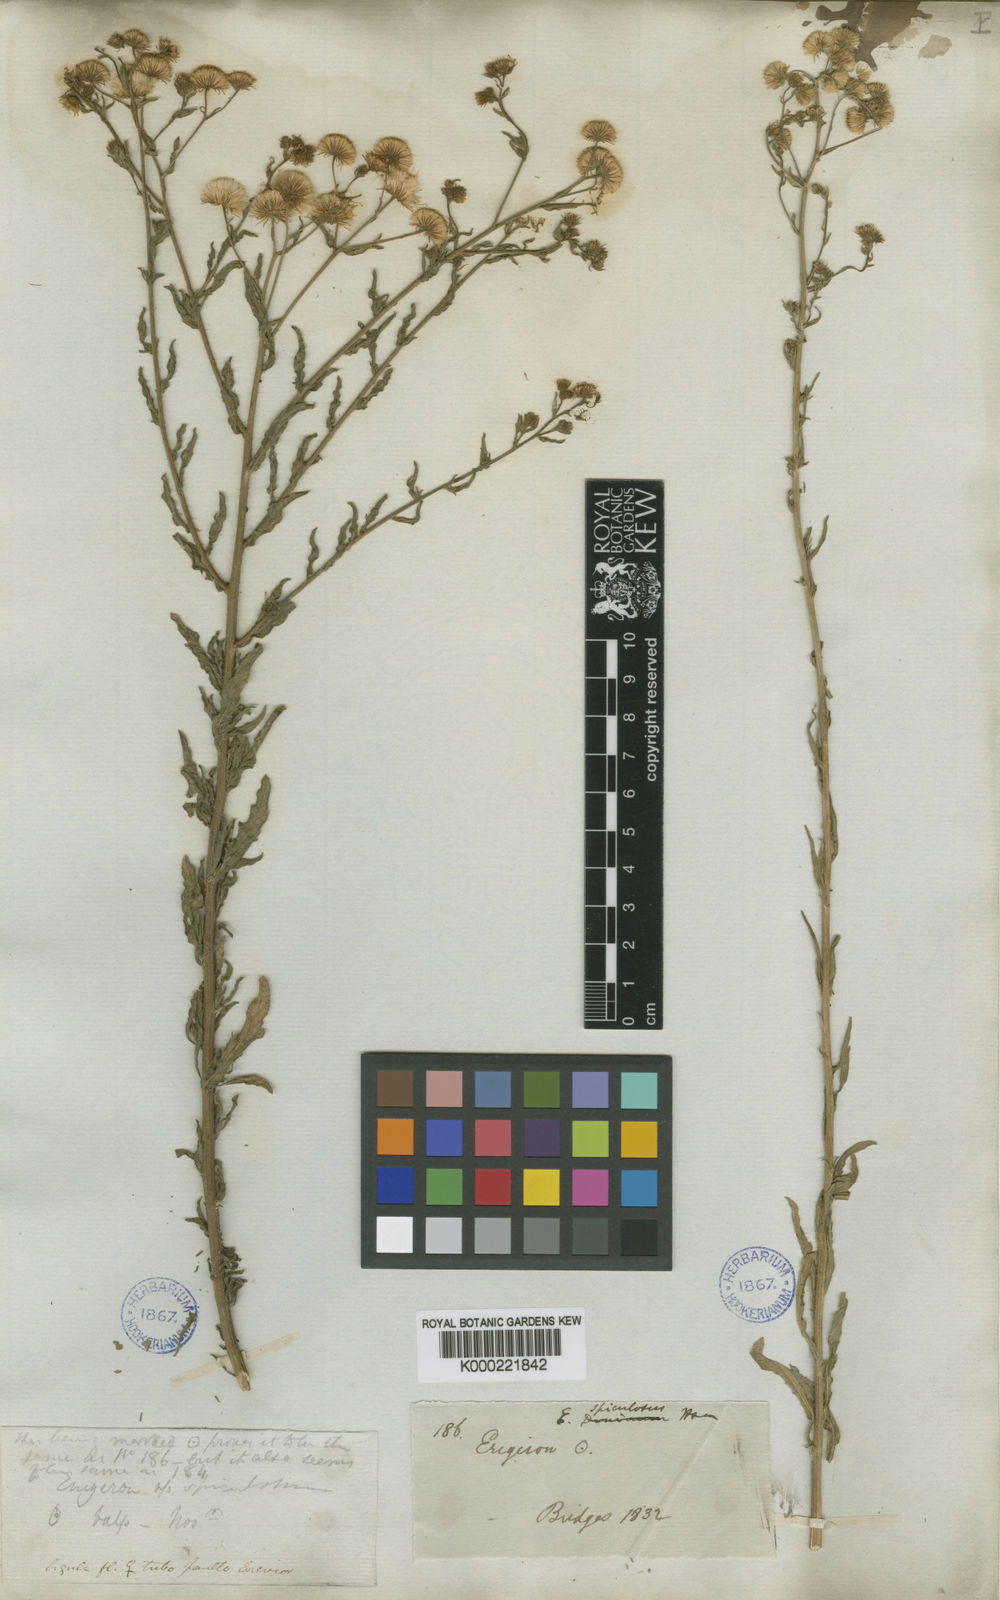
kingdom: Plantae
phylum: Tracheophyta
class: Magnoliopsida
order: Asterales
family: Asteraceae
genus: Erigeron
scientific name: Erigeron spiculosus
